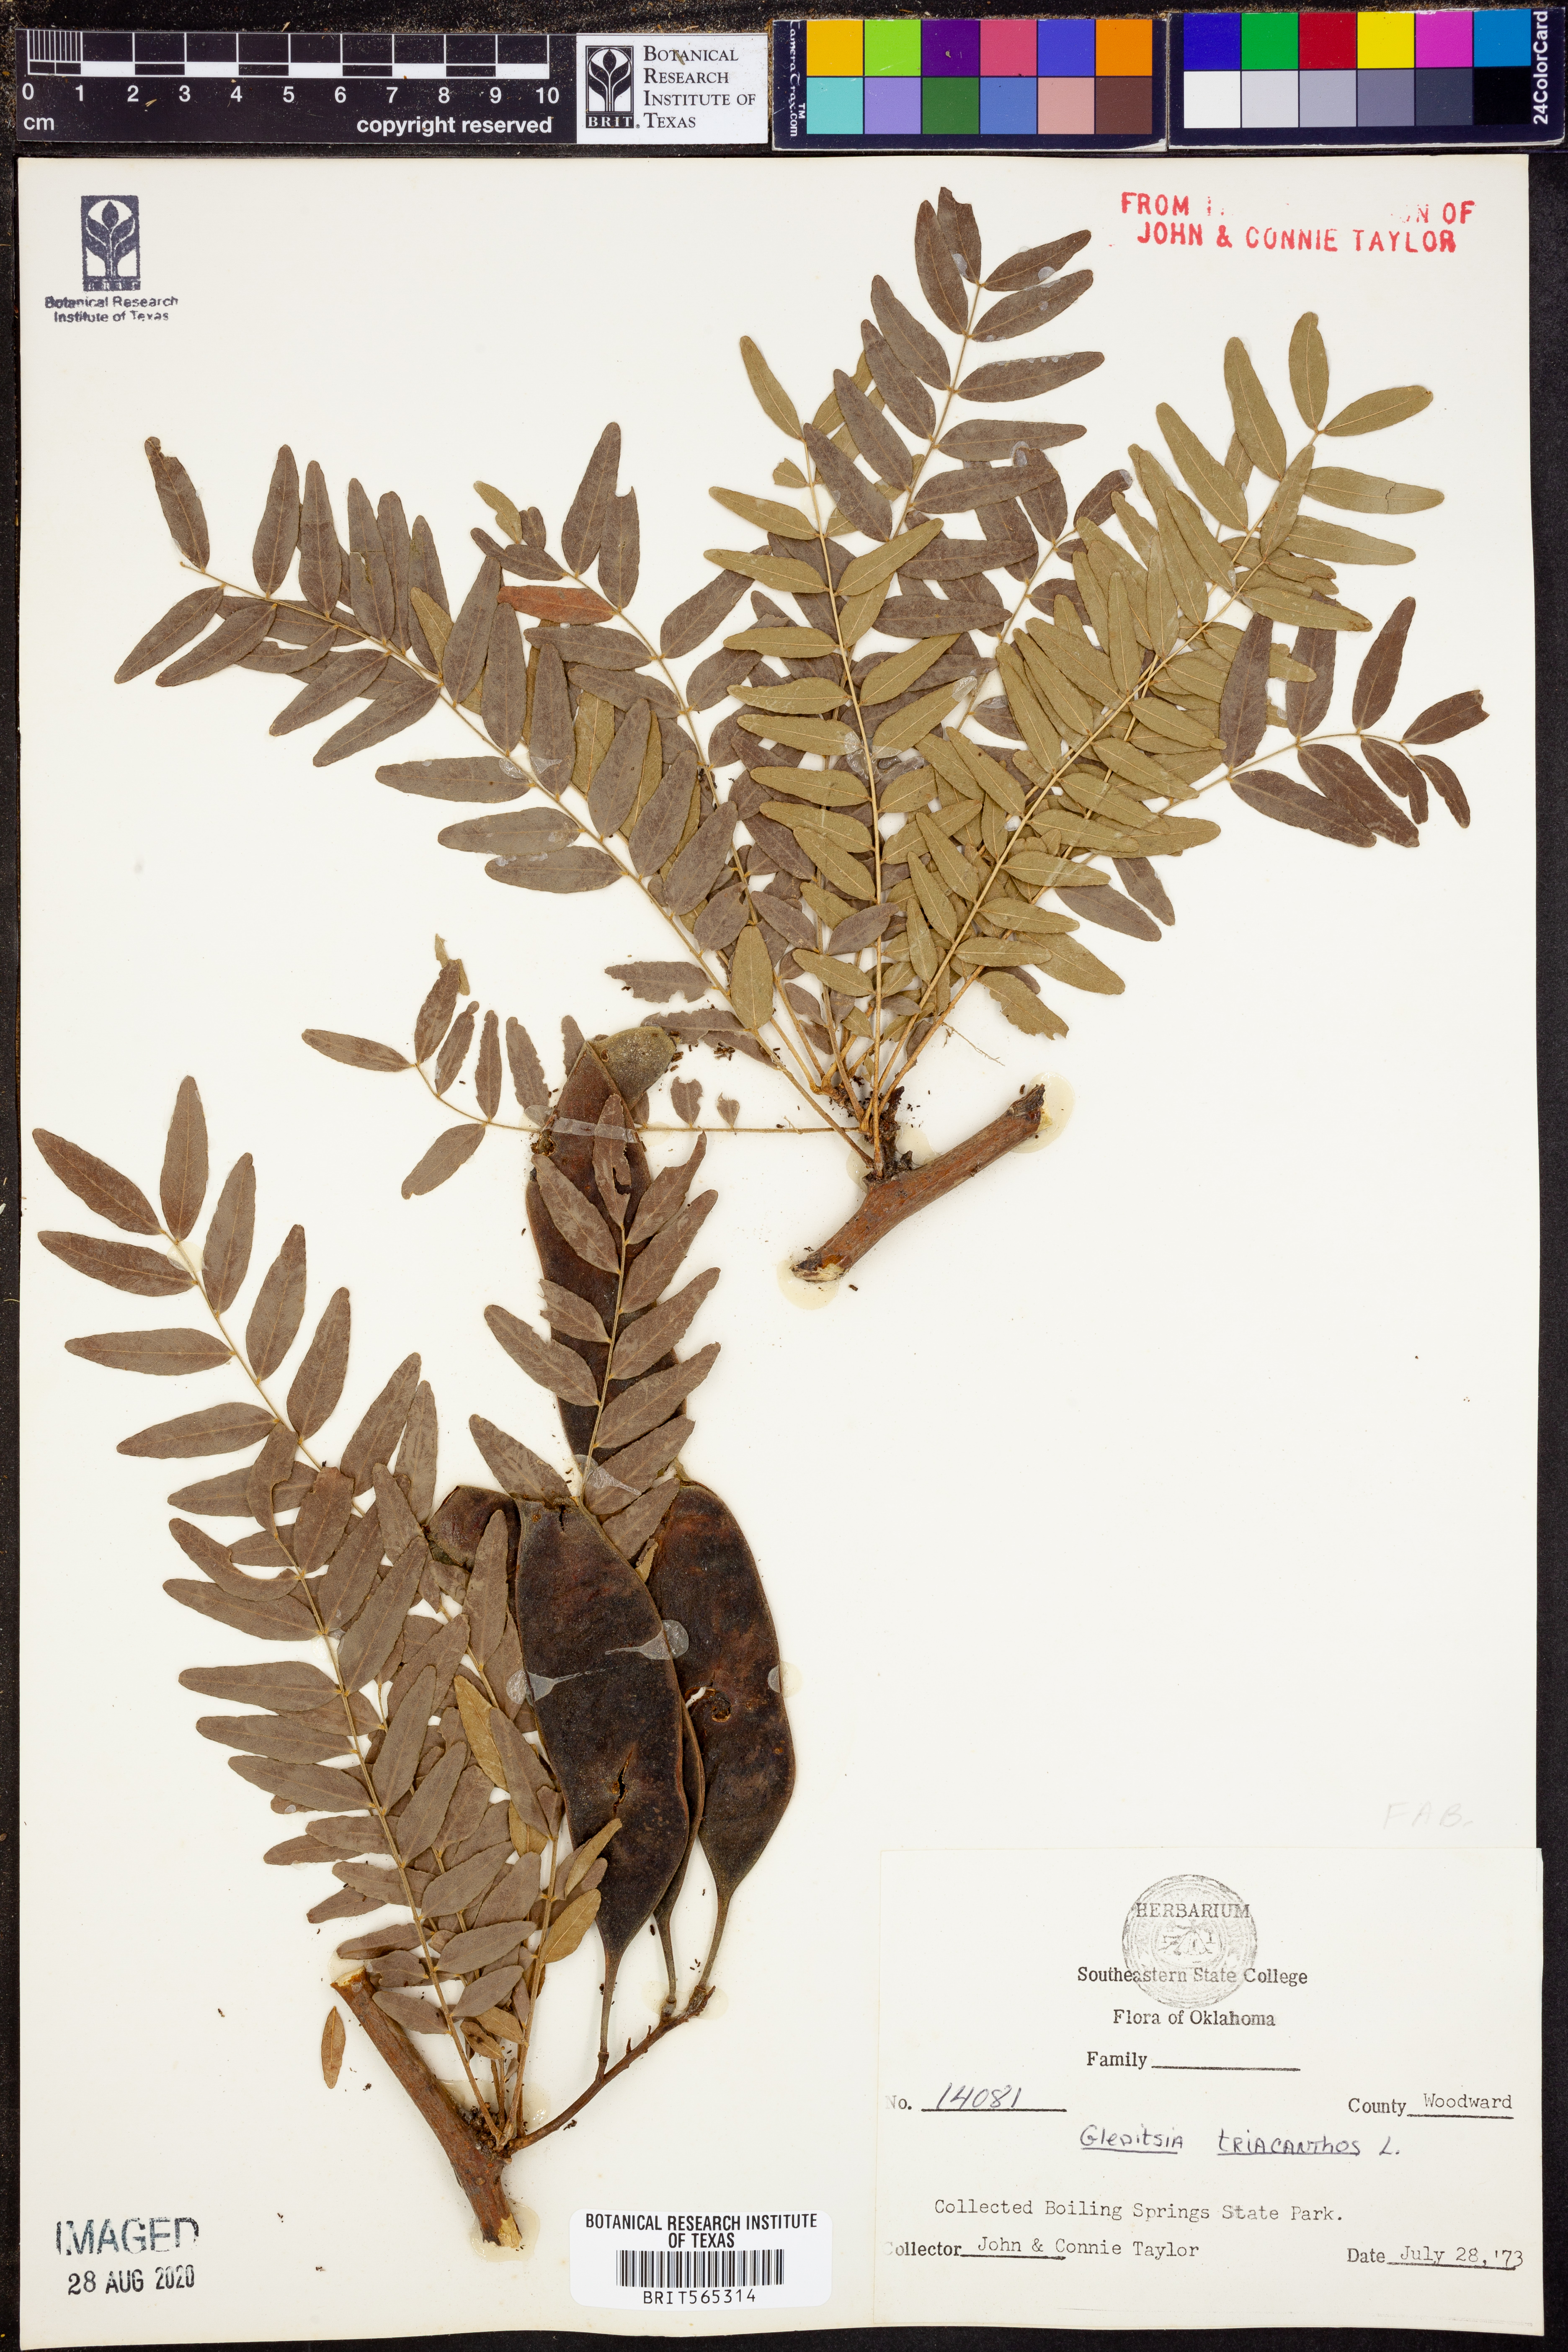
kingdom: Plantae
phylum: Tracheophyta
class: Magnoliopsida
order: Fabales
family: Fabaceae
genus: Gleditsia
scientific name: Gleditsia triacanthos
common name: Common honeylocust
